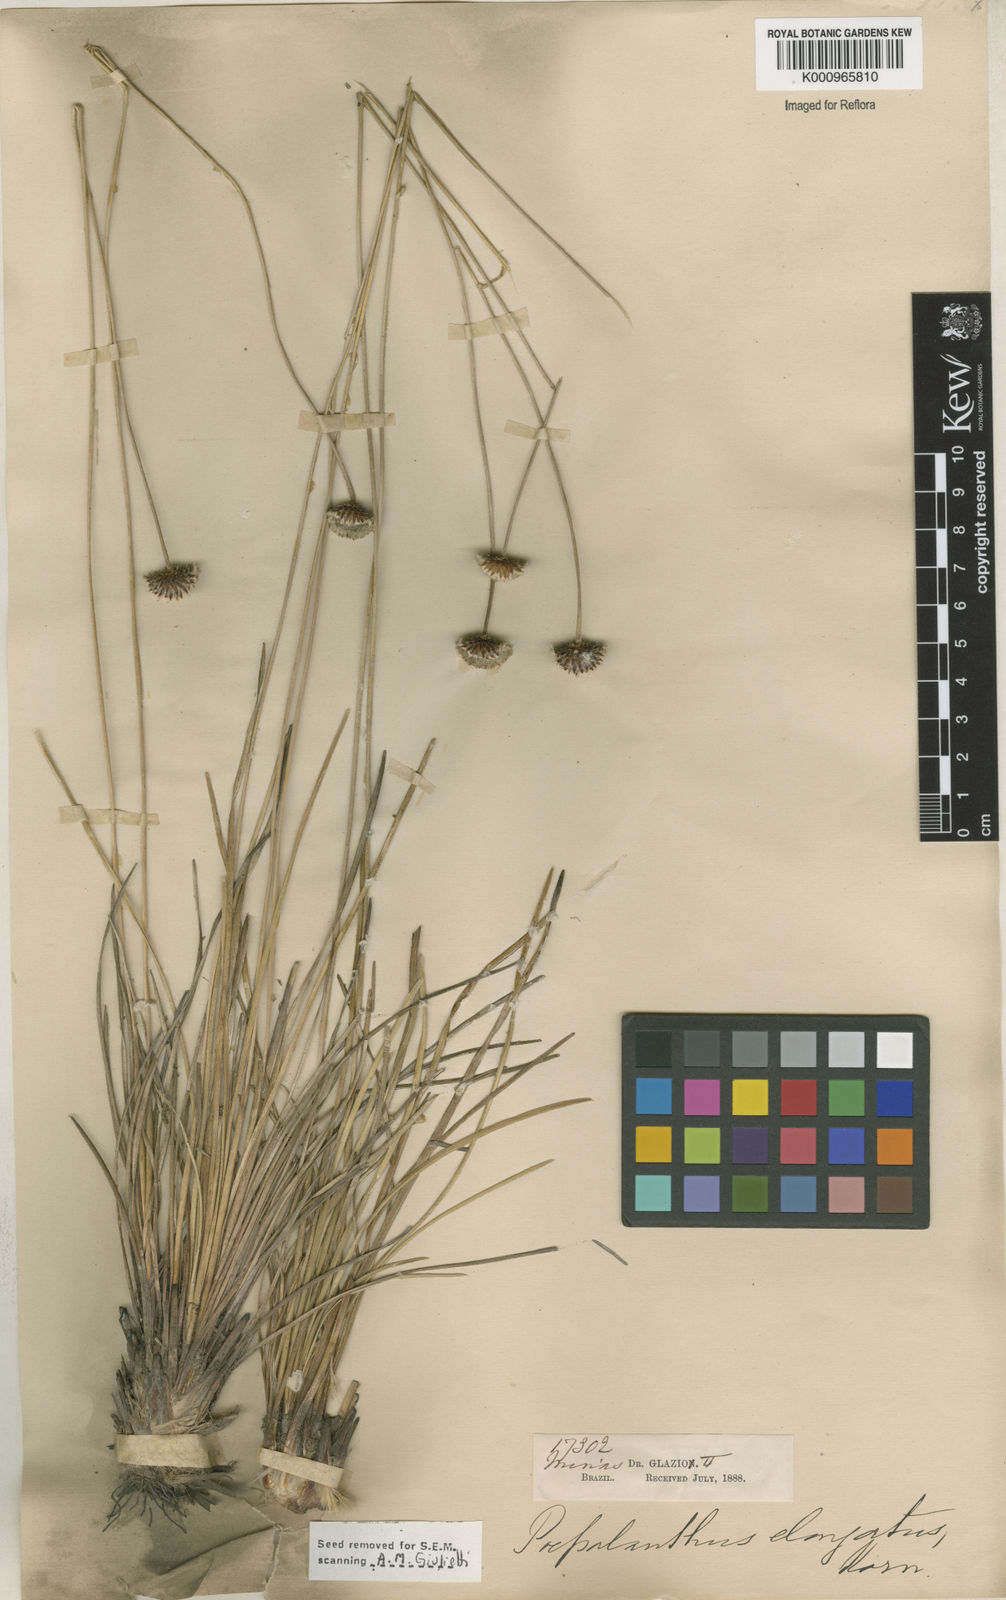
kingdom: Plantae
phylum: Tracheophyta
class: Liliopsida
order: Poales
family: Eriocaulaceae
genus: Paepalanthus
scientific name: Paepalanthus
